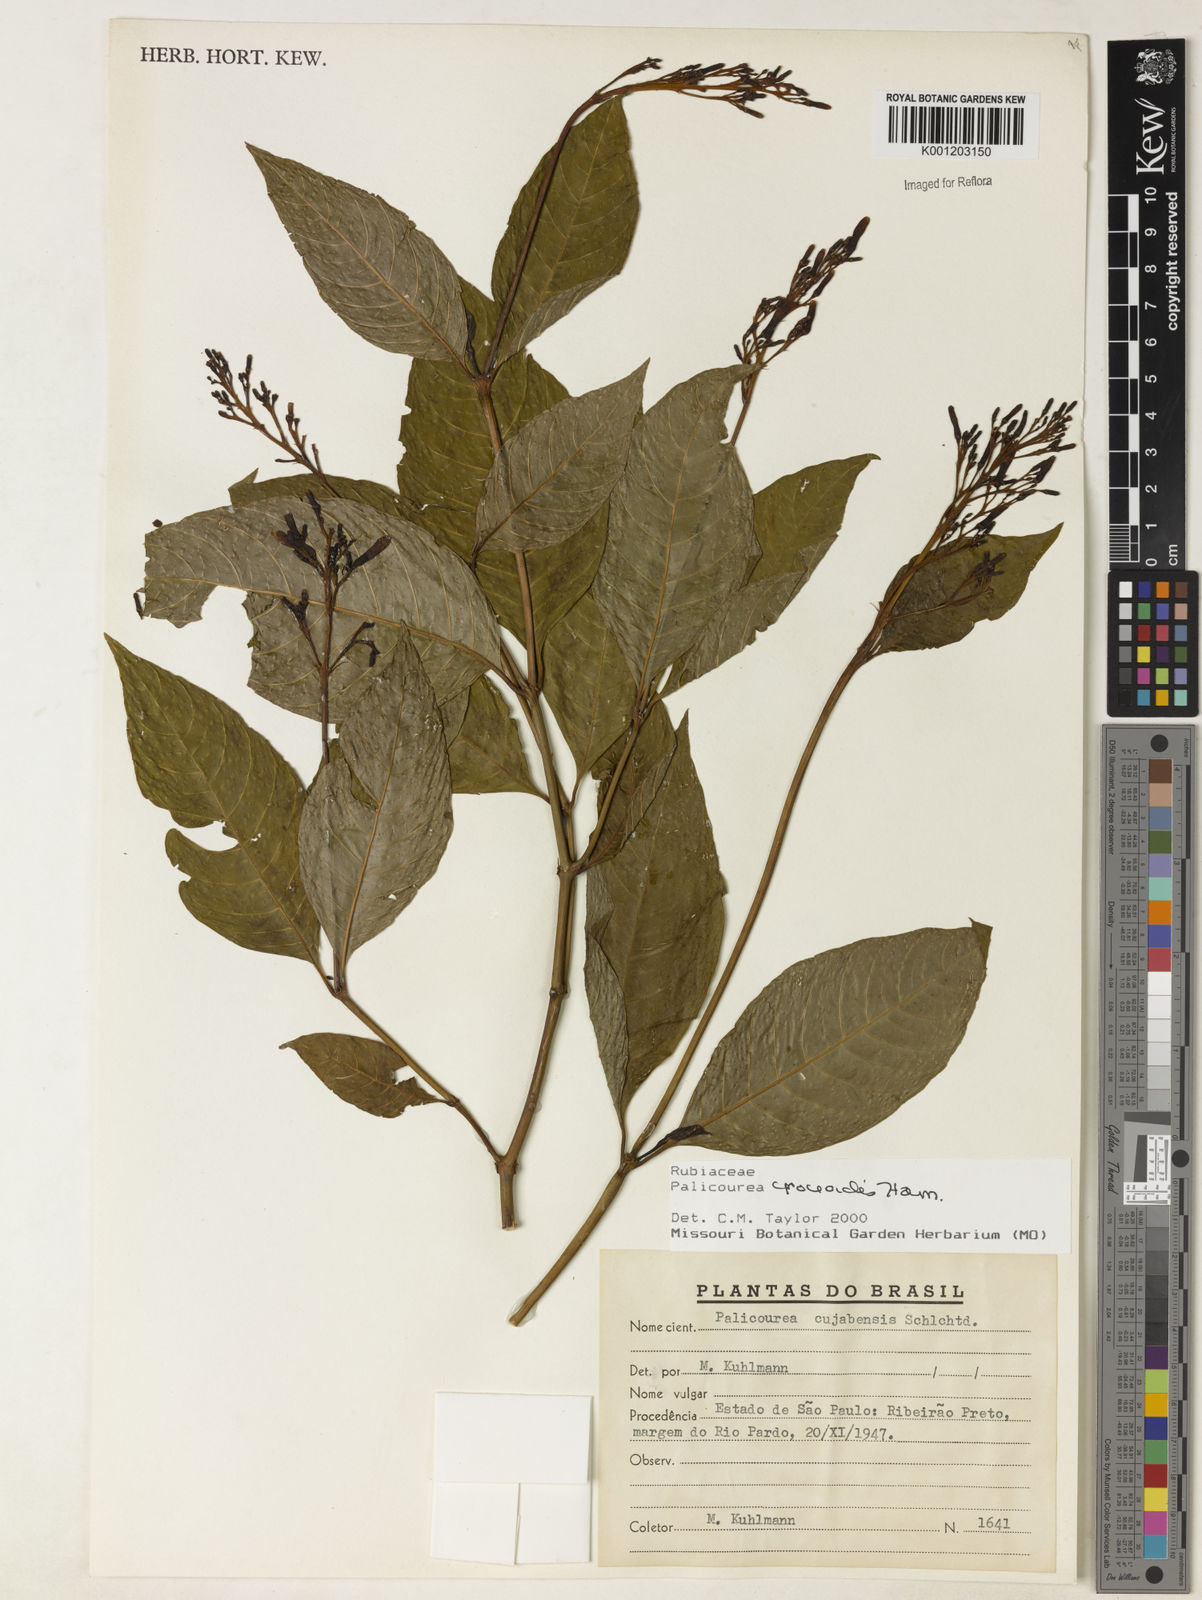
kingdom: Plantae
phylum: Tracheophyta
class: Magnoliopsida
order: Gentianales
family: Rubiaceae
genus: Palicourea
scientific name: Palicourea croceoides
